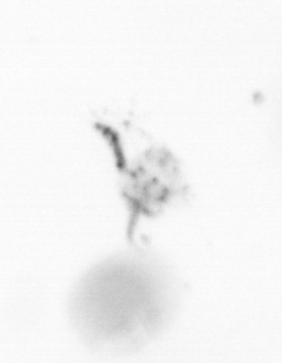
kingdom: Chromista
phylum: Ochrophyta
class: Bacillariophyceae
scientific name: Bacillariophyceae
